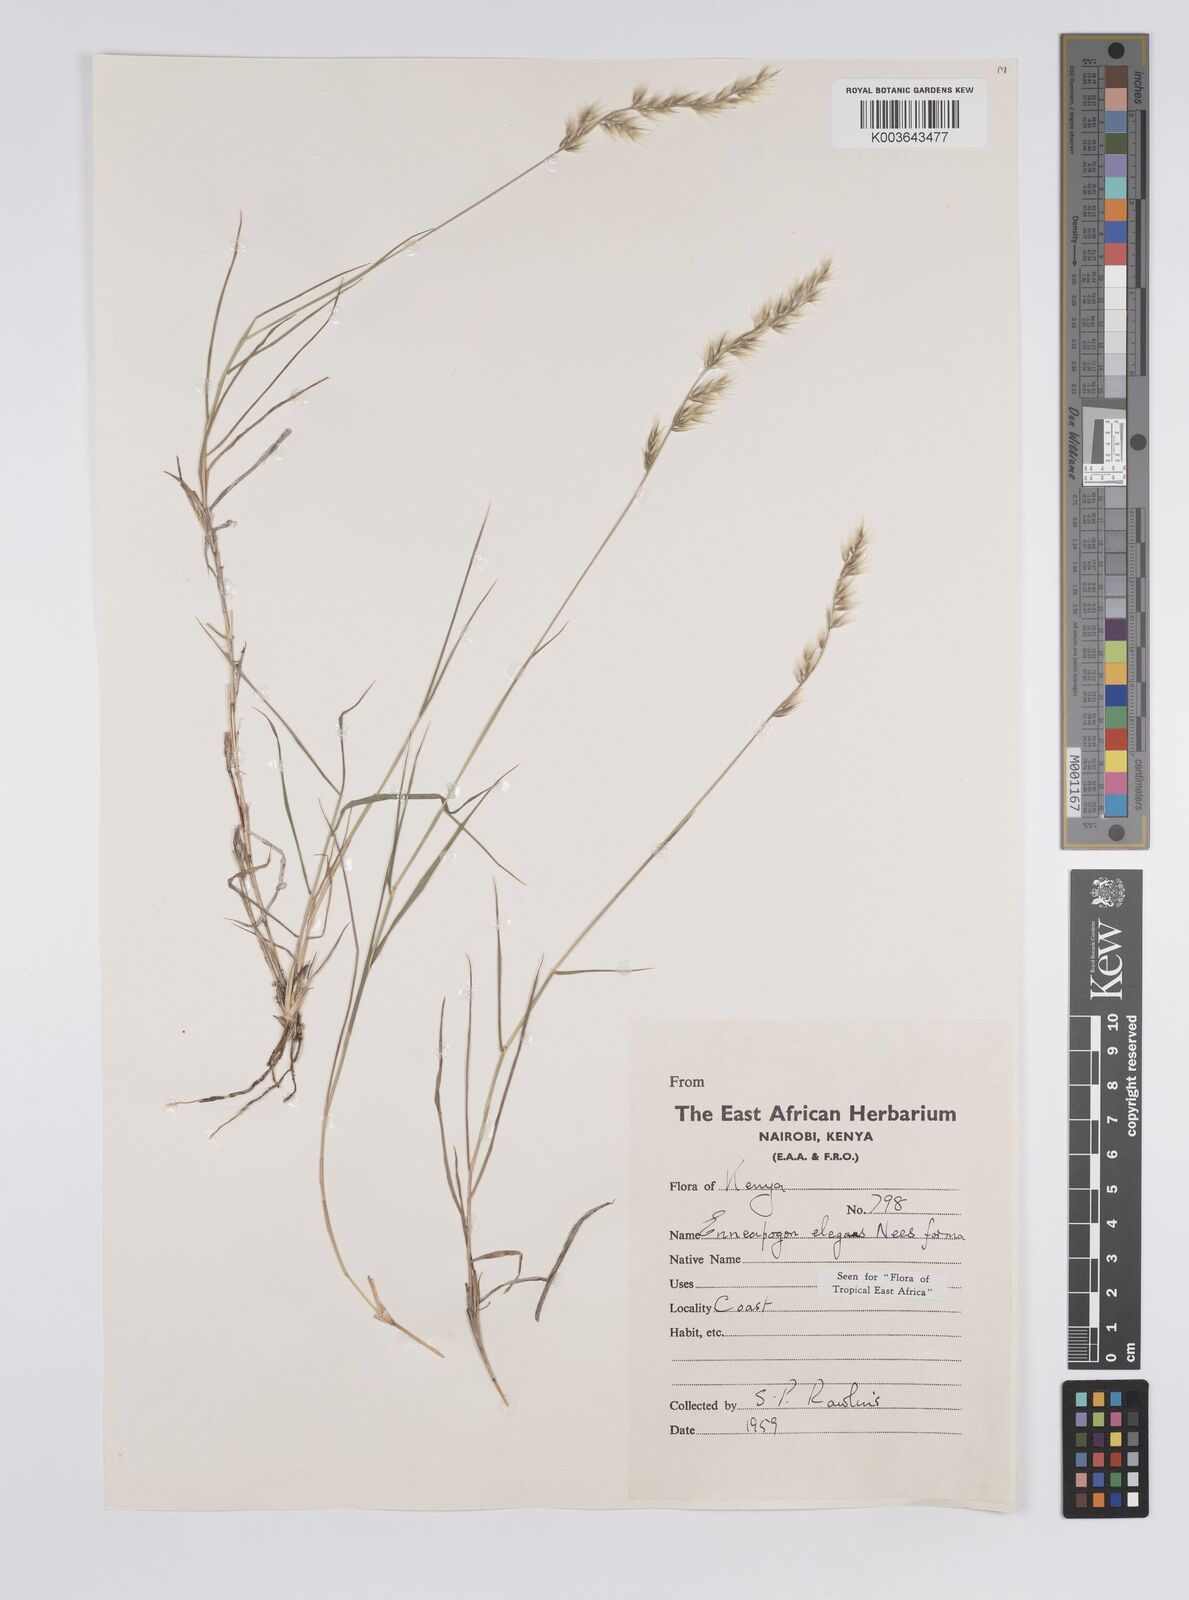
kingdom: Plantae
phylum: Tracheophyta
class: Liliopsida
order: Poales
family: Poaceae
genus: Enneapogon
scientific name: Enneapogon persicus
